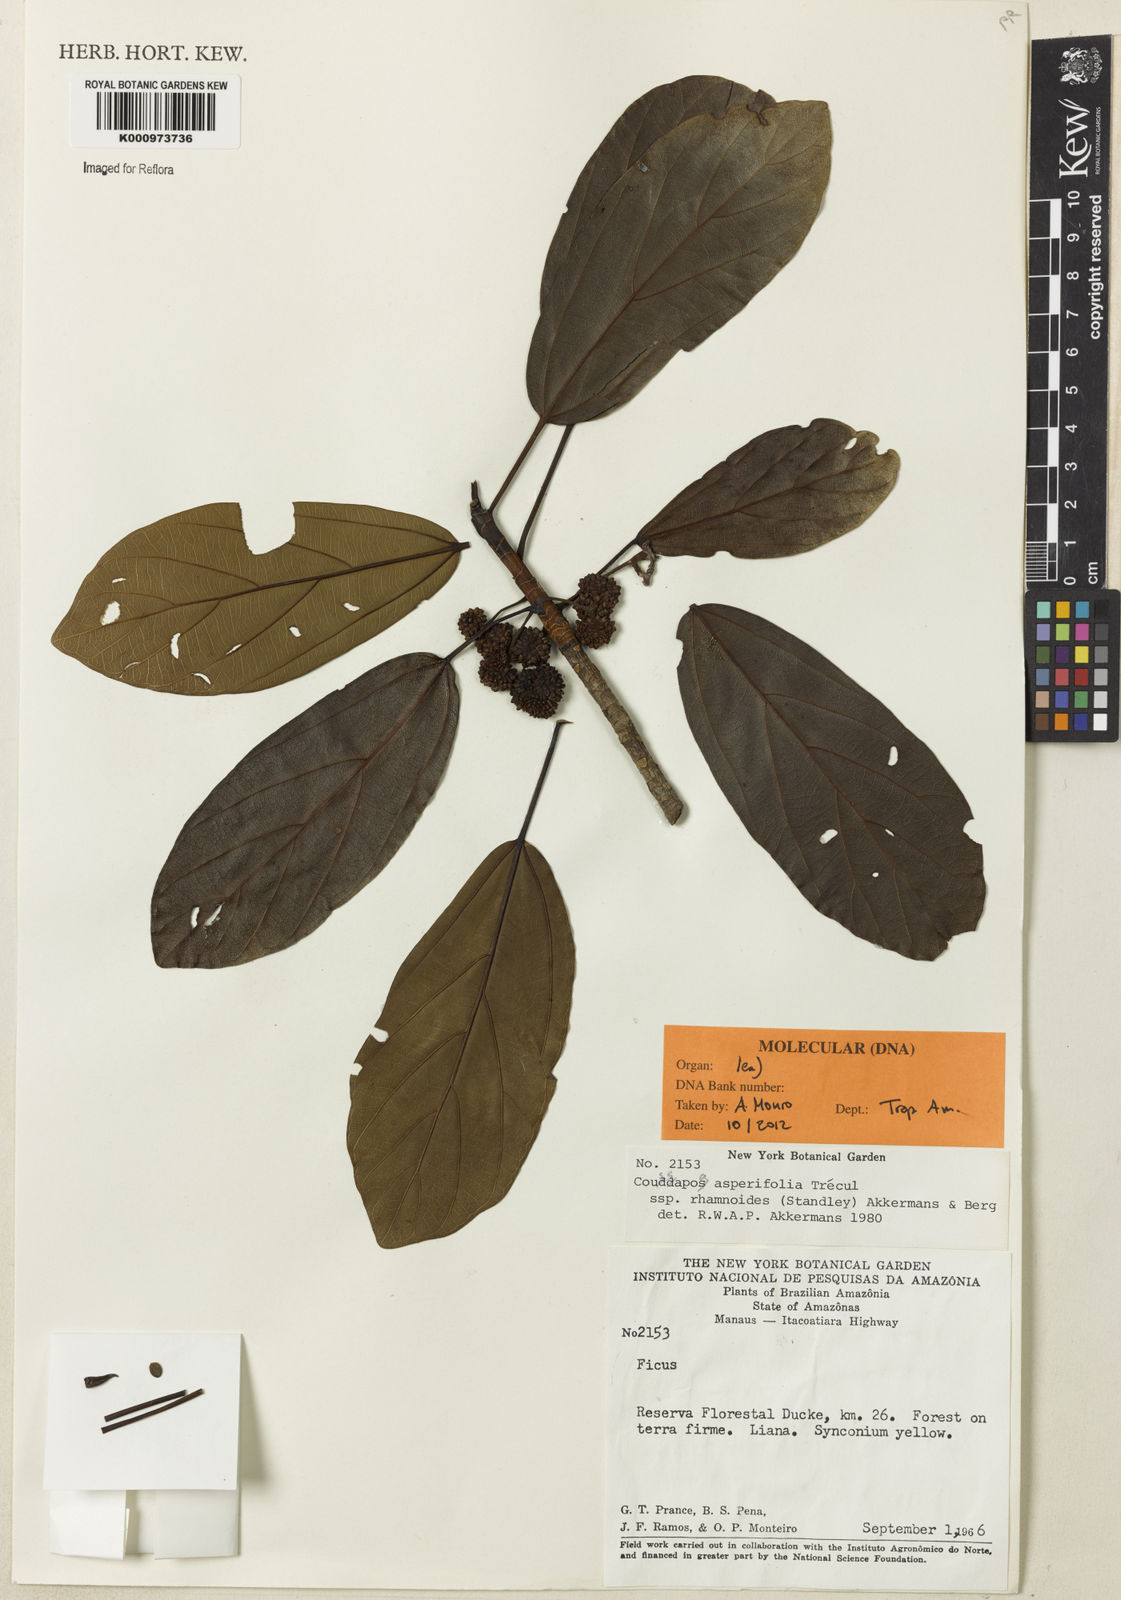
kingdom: Plantae
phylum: Tracheophyta
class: Magnoliopsida
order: Rosales
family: Urticaceae
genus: Coussapoa
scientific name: Coussapoa
